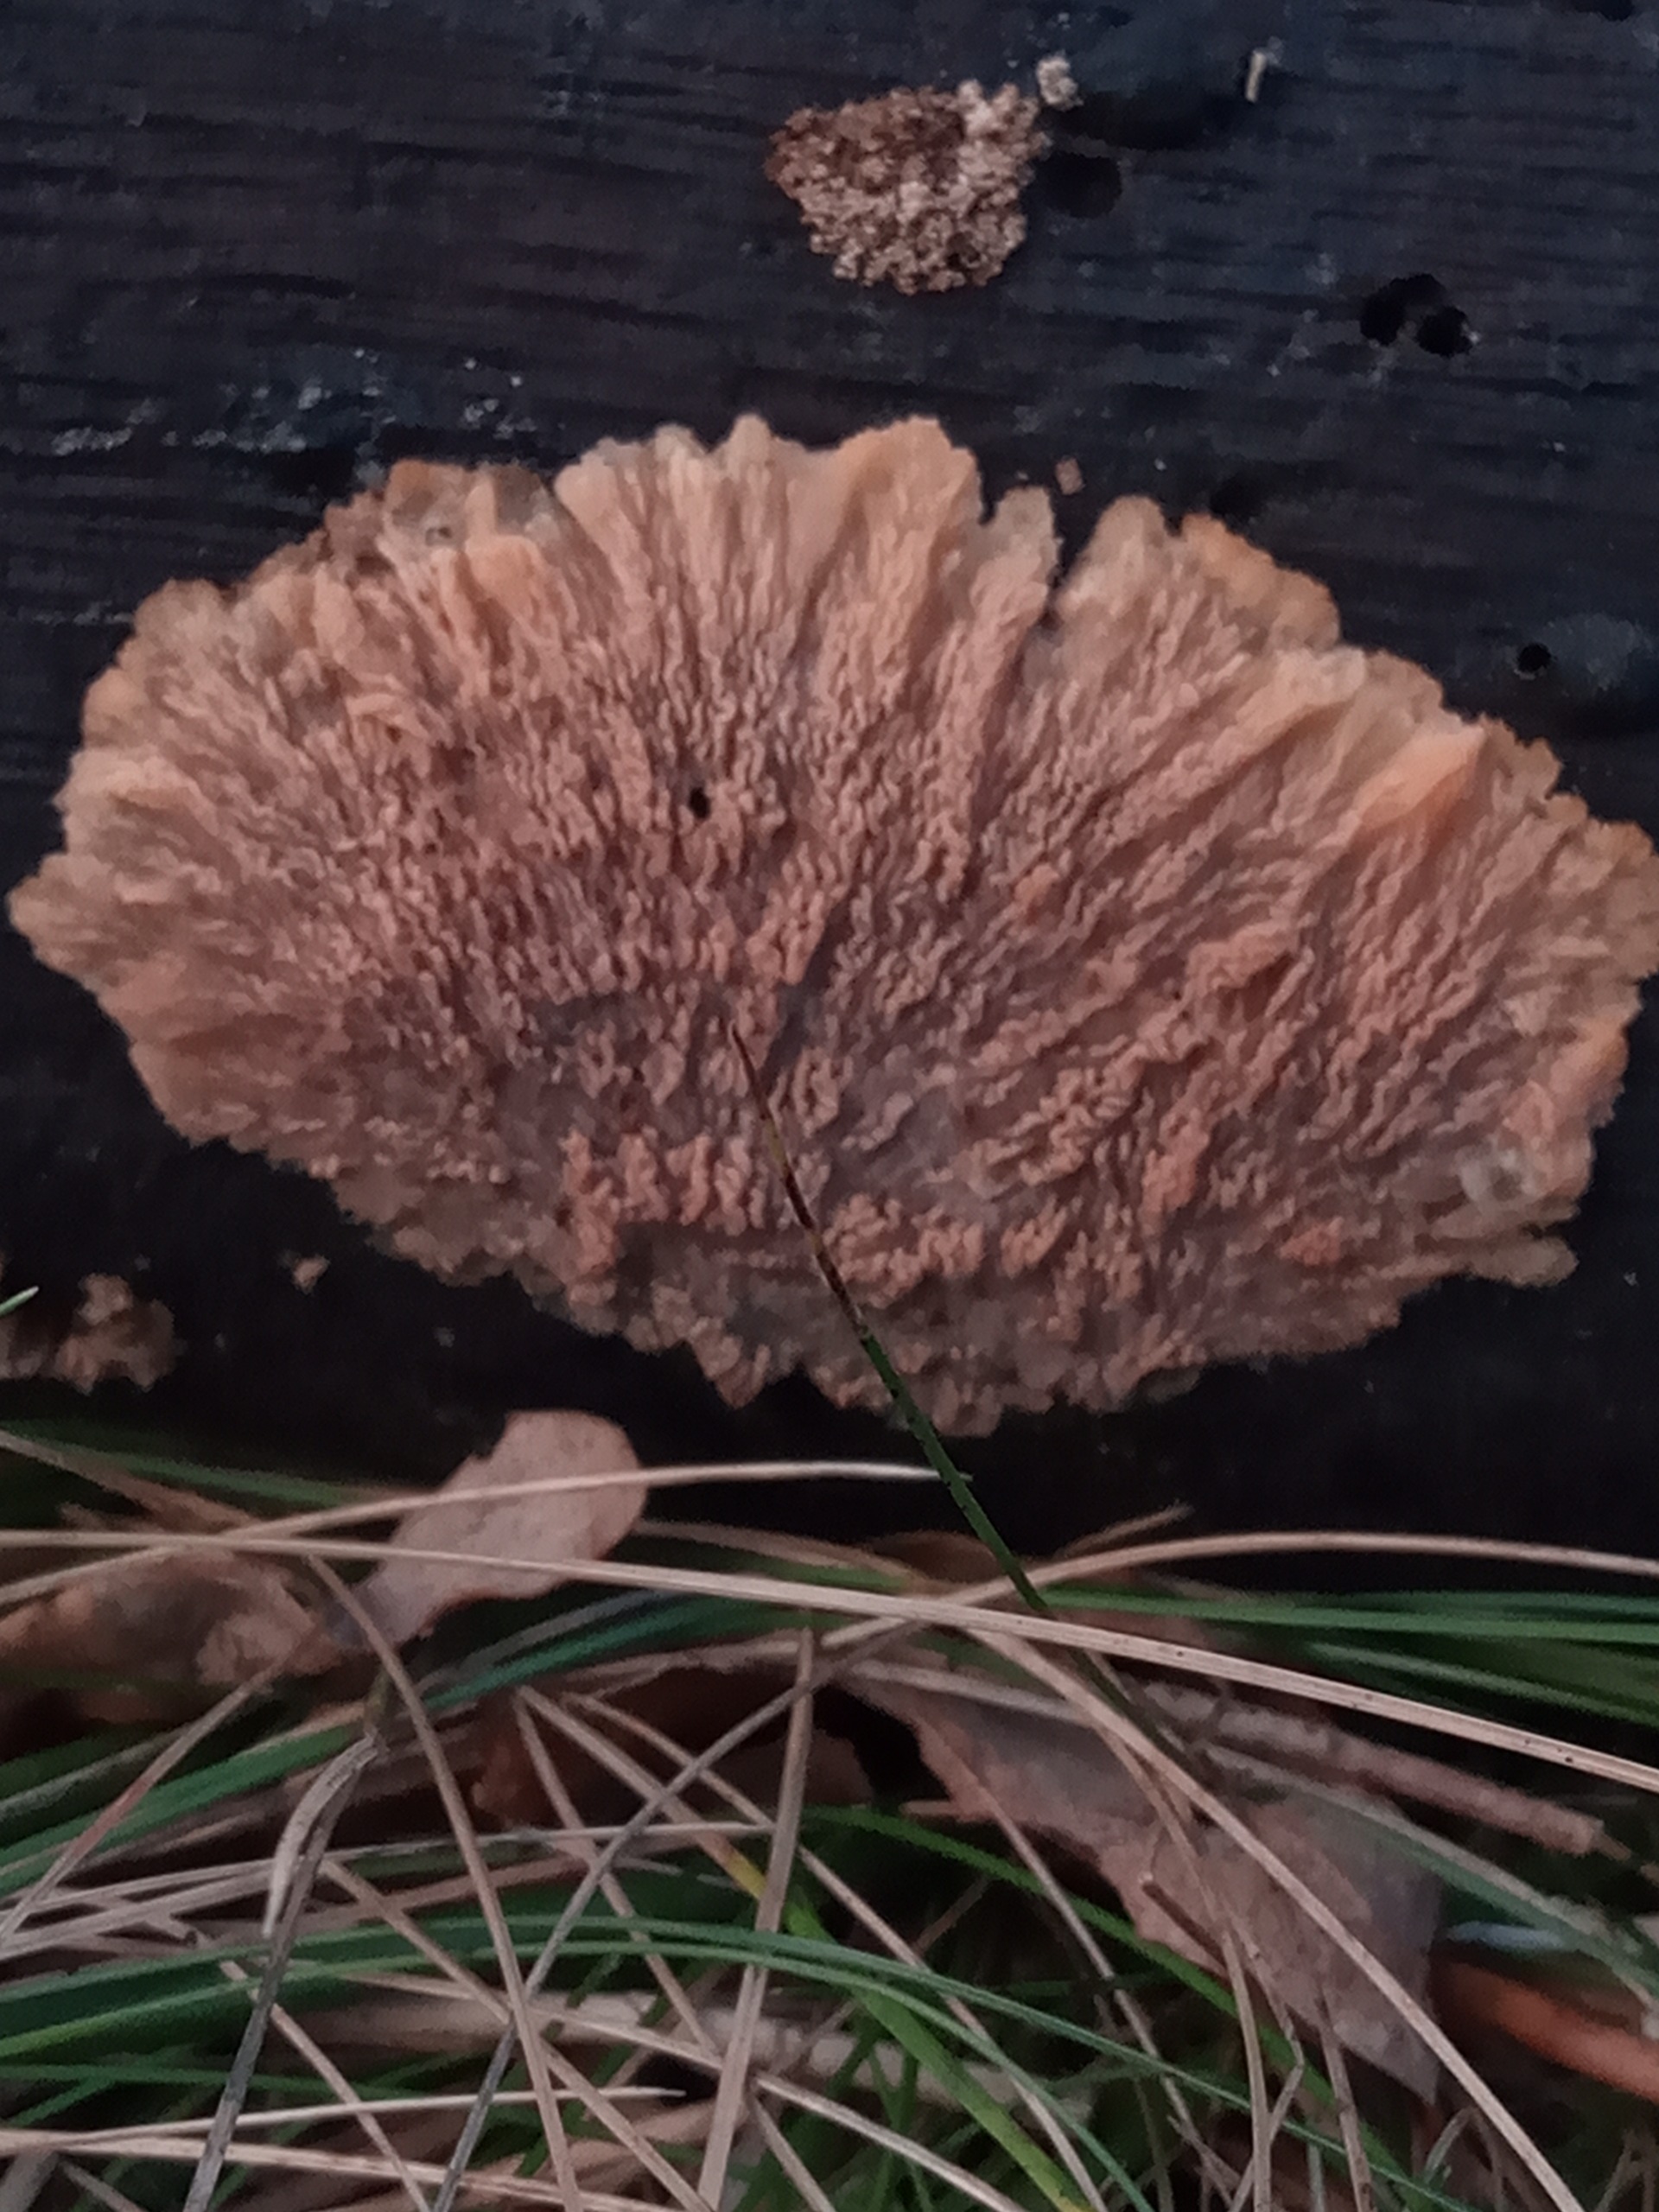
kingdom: Fungi
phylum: Basidiomycota
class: Agaricomycetes
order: Polyporales
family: Meruliaceae
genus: Phlebia
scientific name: Phlebia radiata
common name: Stråle-åresvamp
